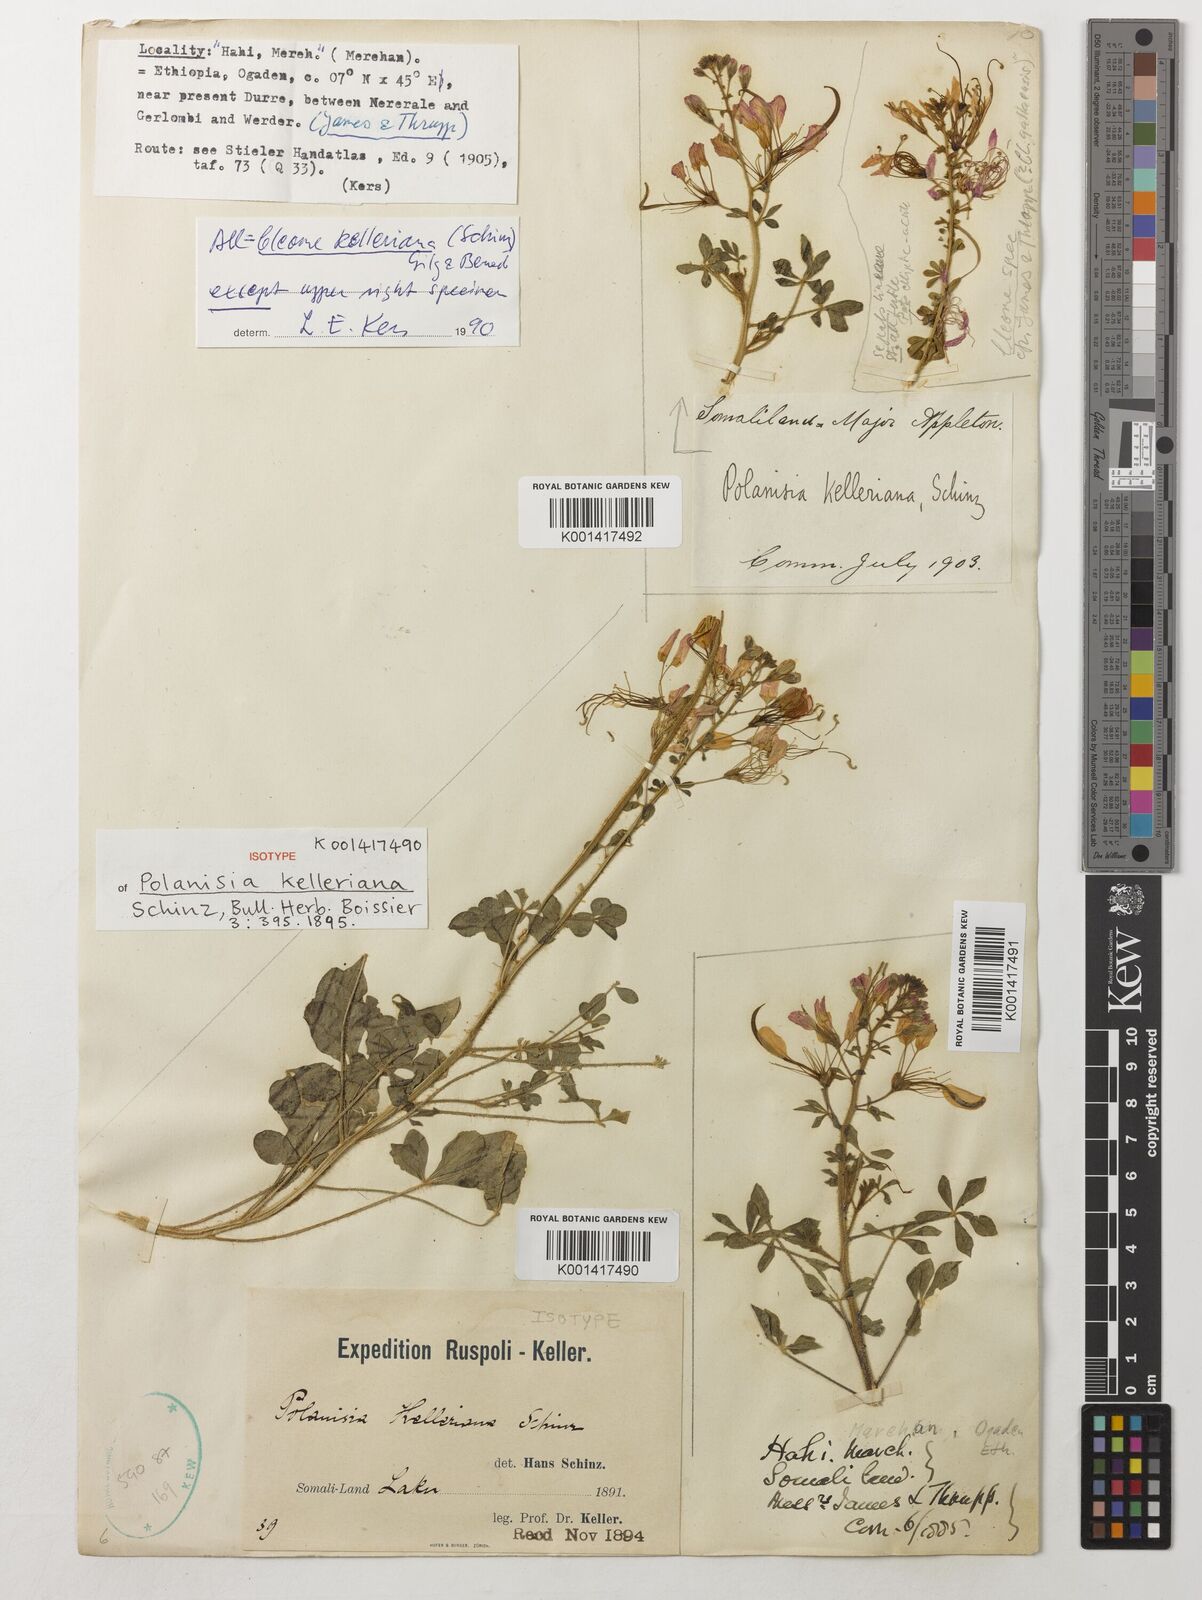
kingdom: Plantae
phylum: Tracheophyta
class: Magnoliopsida
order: Brassicales
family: Cleomaceae
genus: Sieruela
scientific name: Sieruela kelleriana
